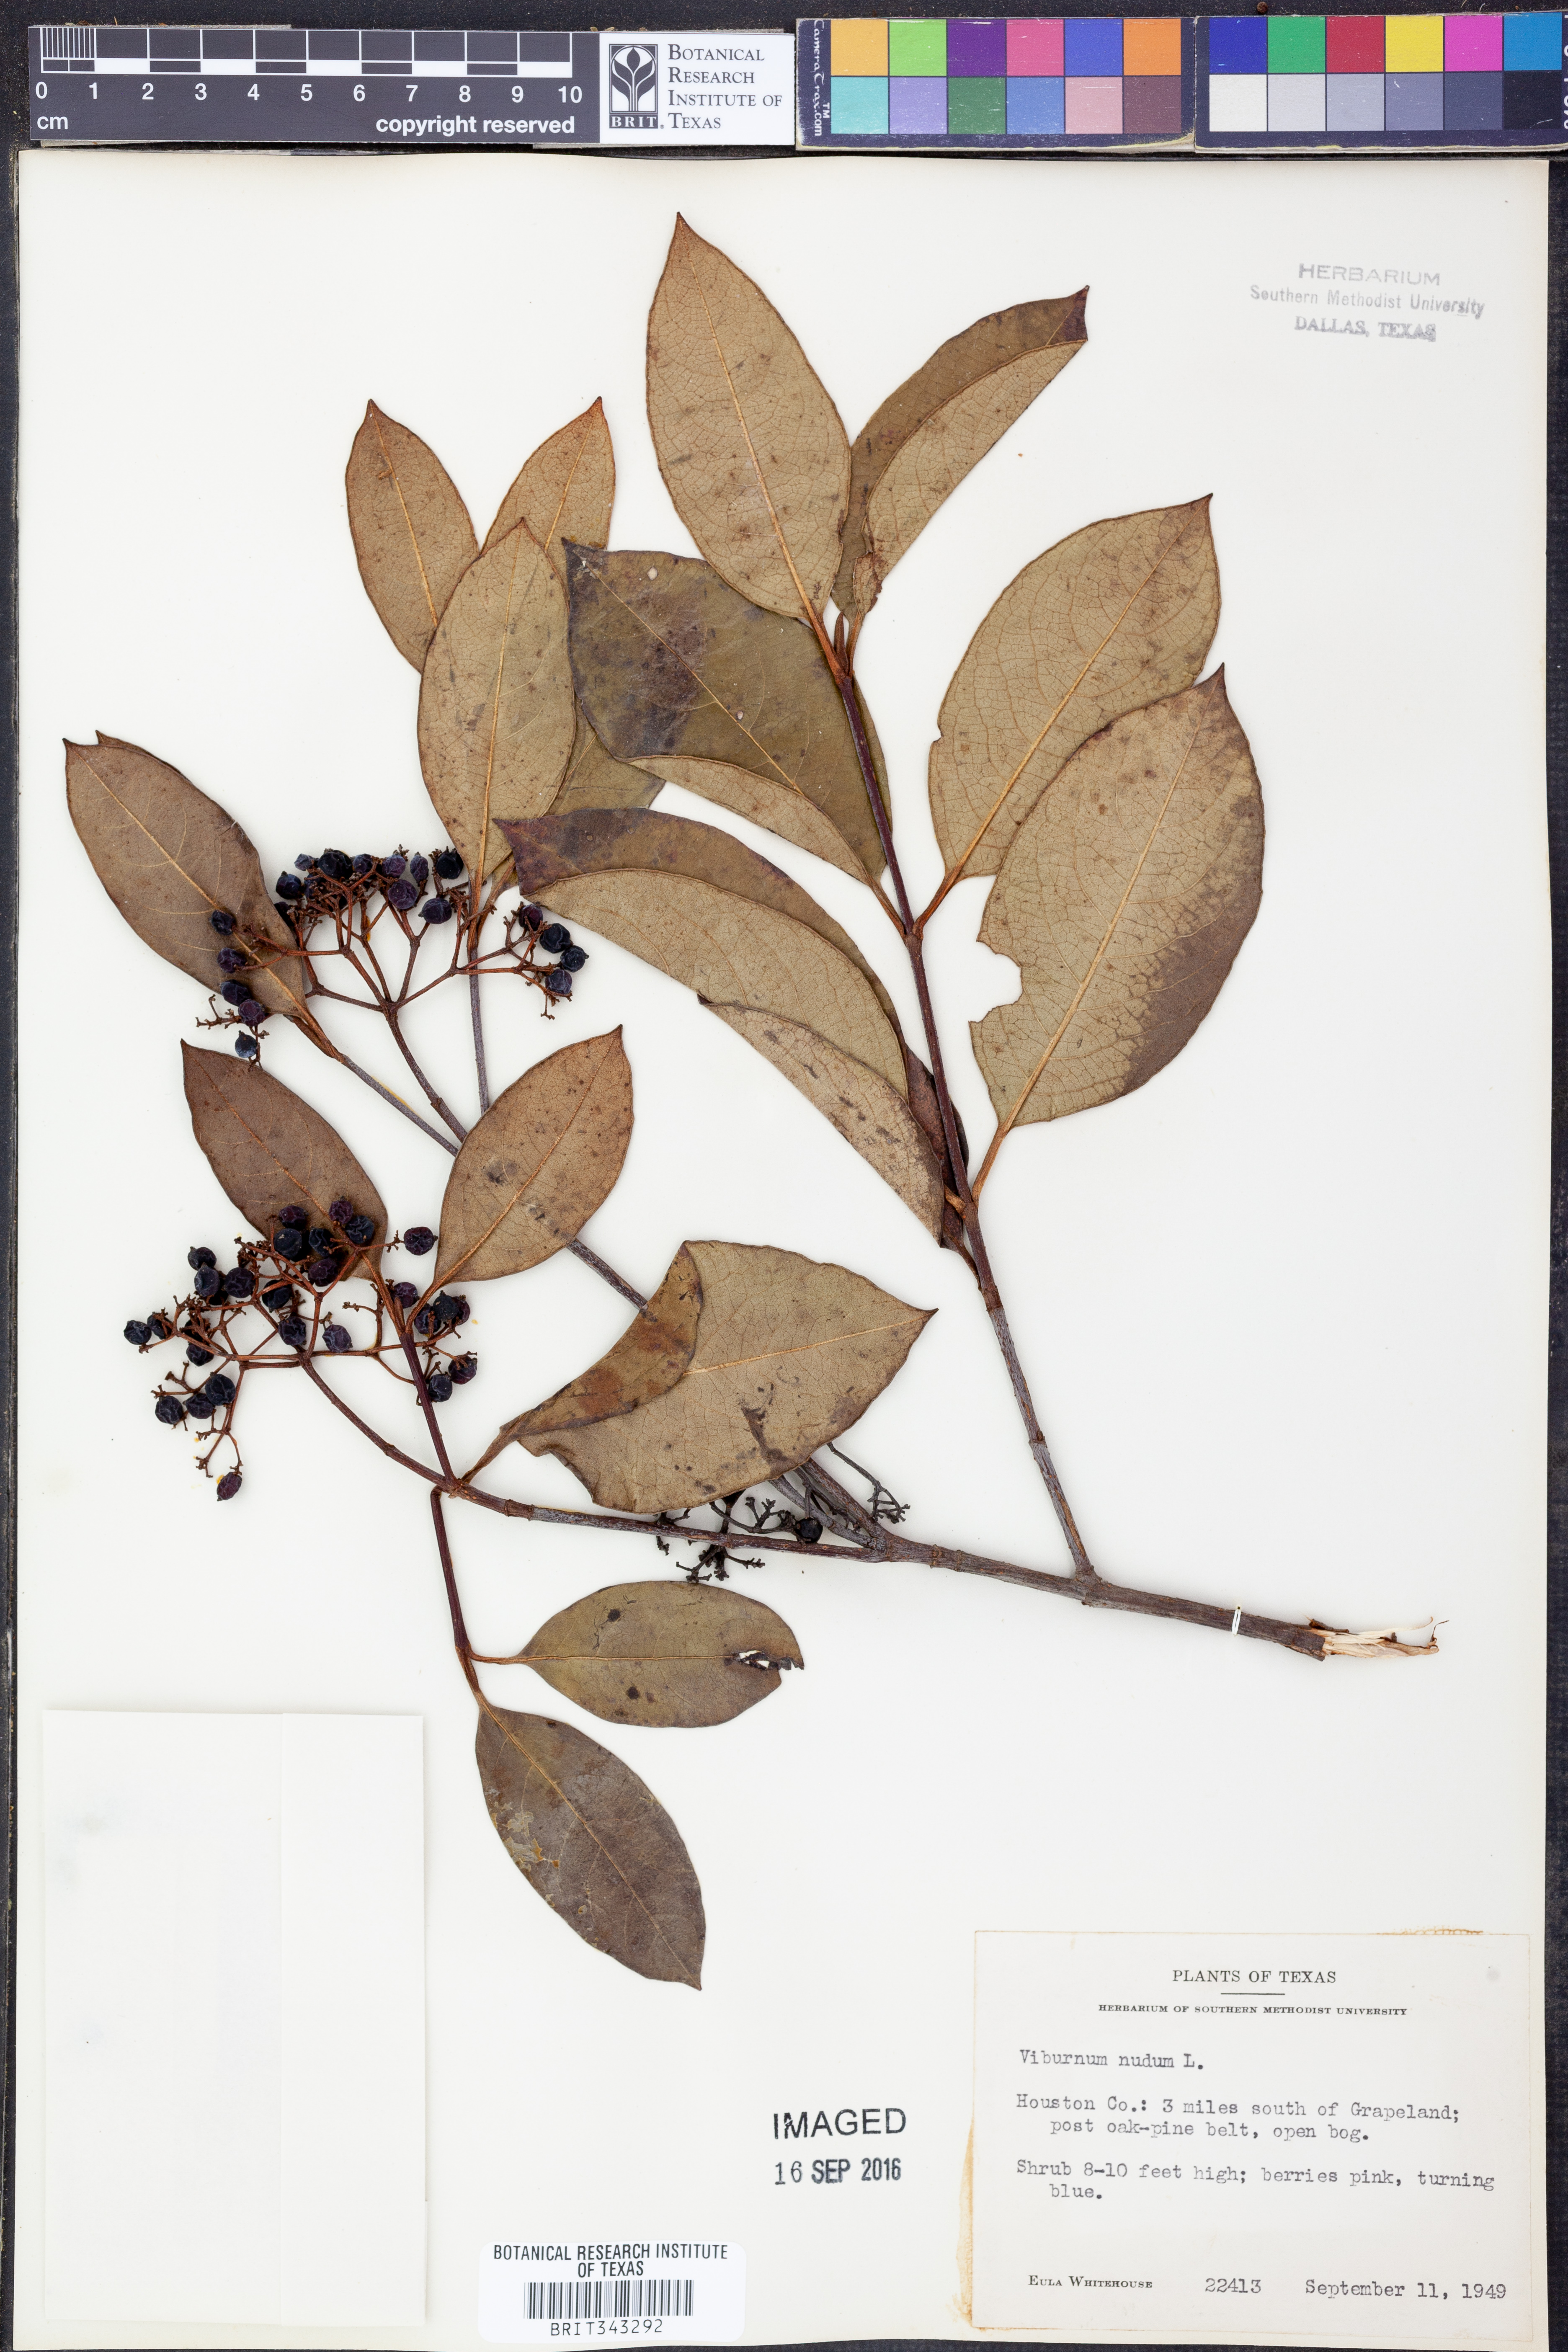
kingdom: Plantae
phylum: Tracheophyta
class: Magnoliopsida
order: Dipsacales
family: Viburnaceae
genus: Viburnum
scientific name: Viburnum nudum
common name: Possum haw
